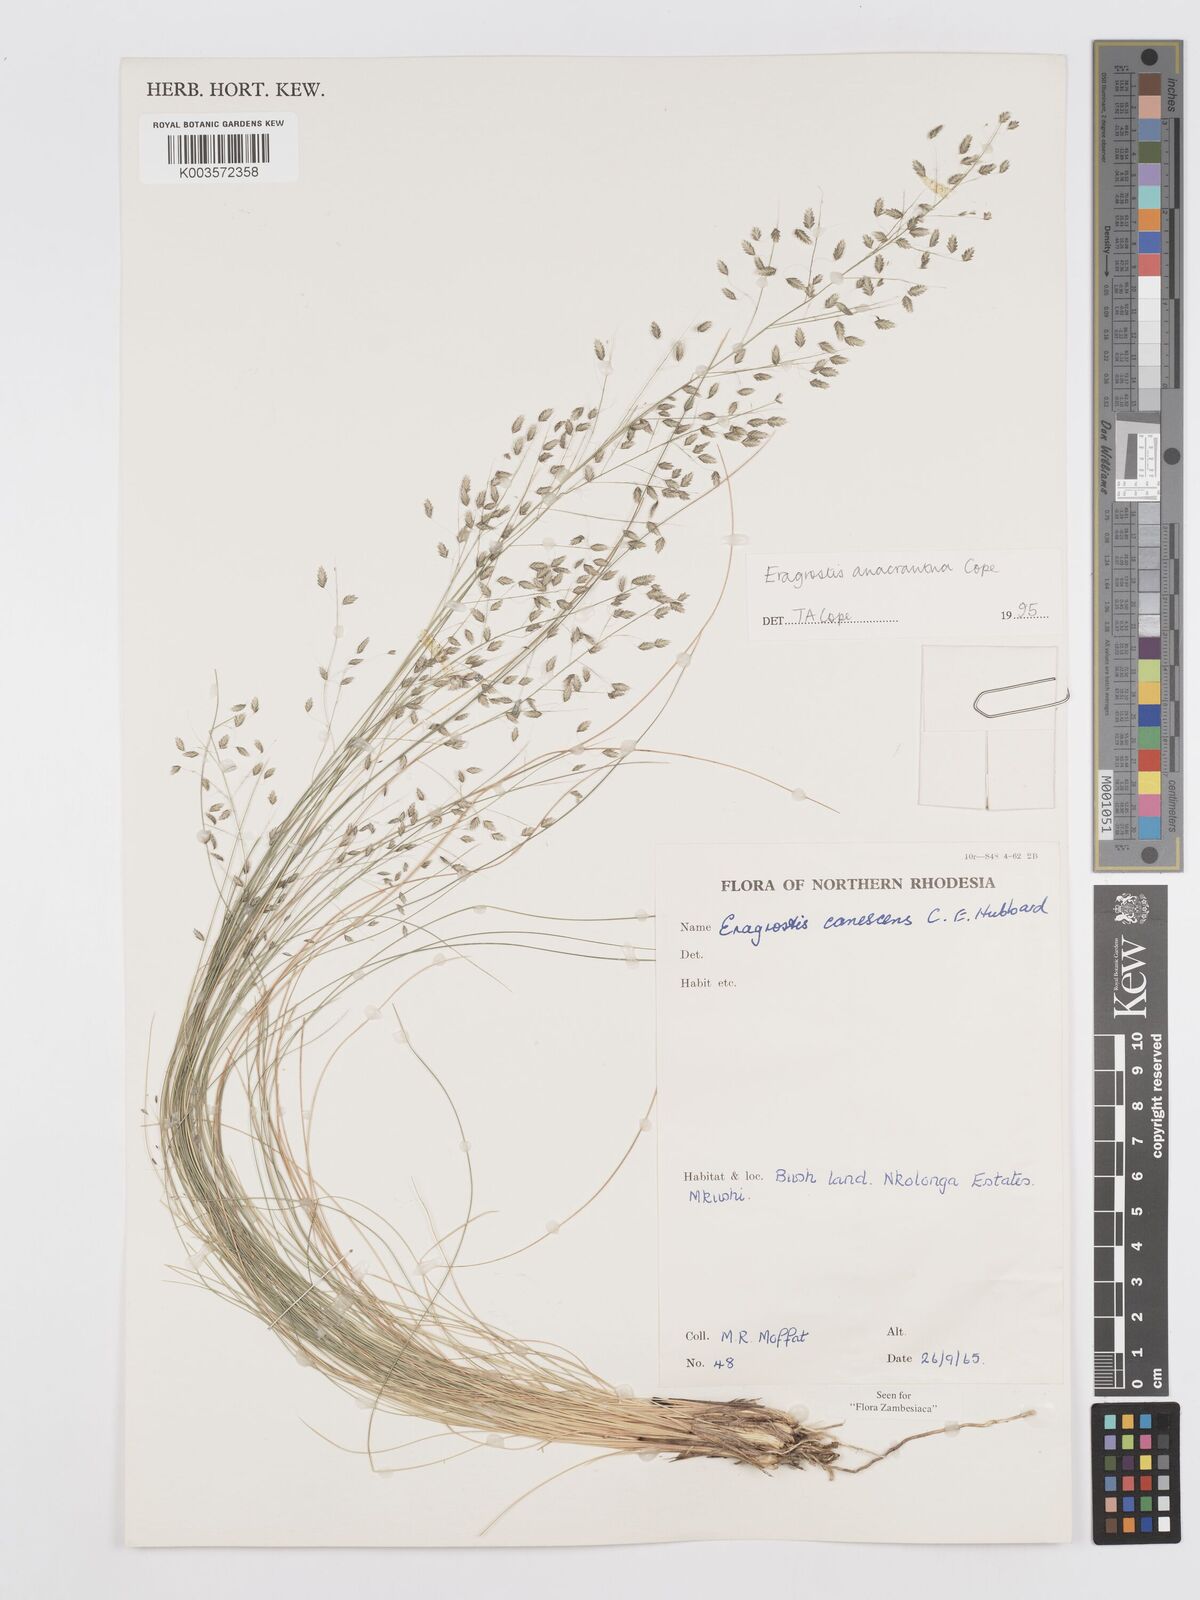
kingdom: Plantae
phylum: Tracheophyta
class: Liliopsida
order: Poales
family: Poaceae
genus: Eragrostis
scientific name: Eragrostis anacrantha
